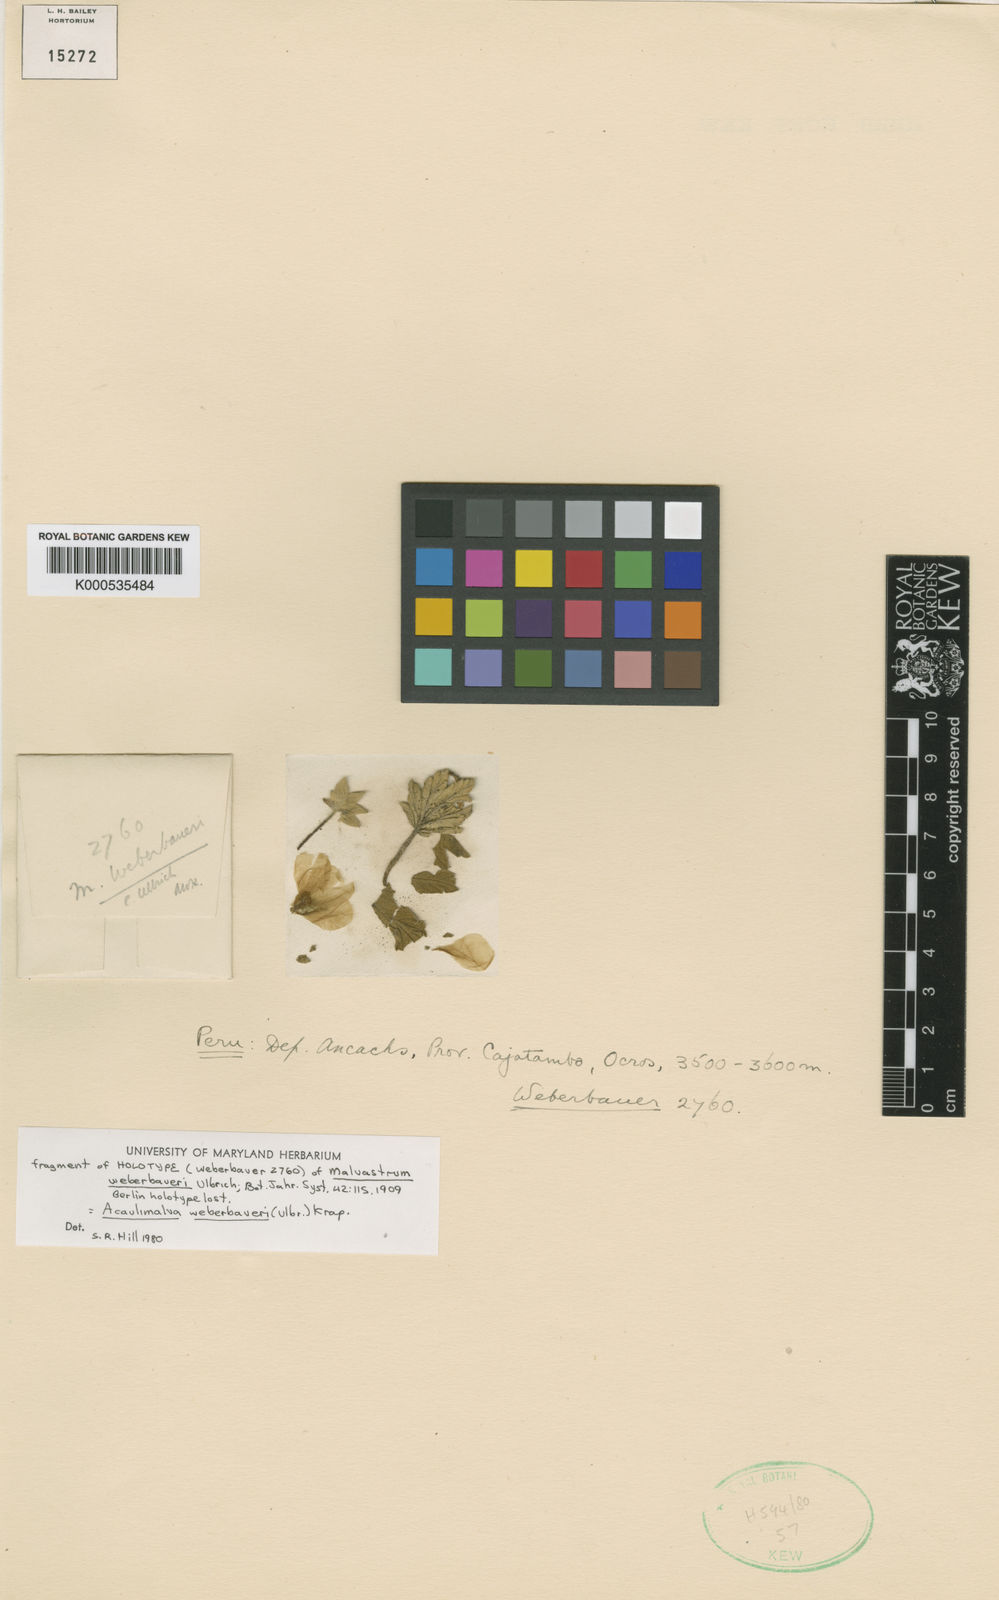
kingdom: Plantae
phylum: Tracheophyta
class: Magnoliopsida
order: Malvales
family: Malvaceae
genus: Acaulimalva
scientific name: Acaulimalva weberbaueri
